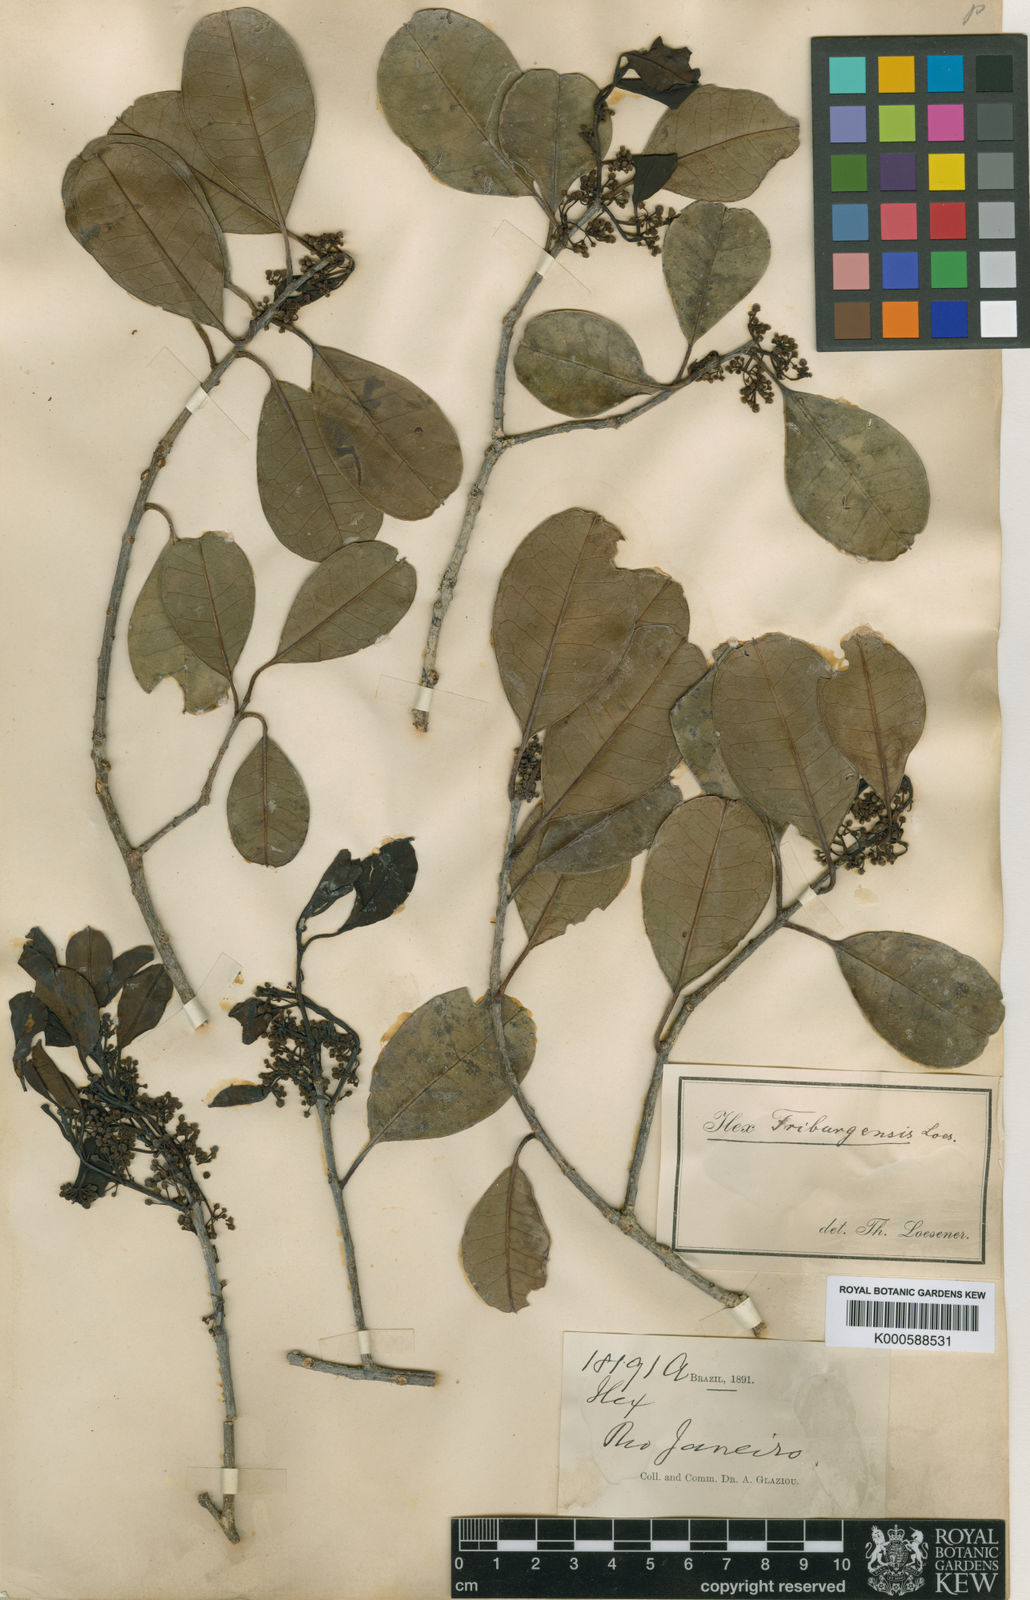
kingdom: Plantae
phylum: Tracheophyta
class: Magnoliopsida
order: Aquifoliales
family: Aquifoliaceae
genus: Ilex
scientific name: Ilex friburgensis
